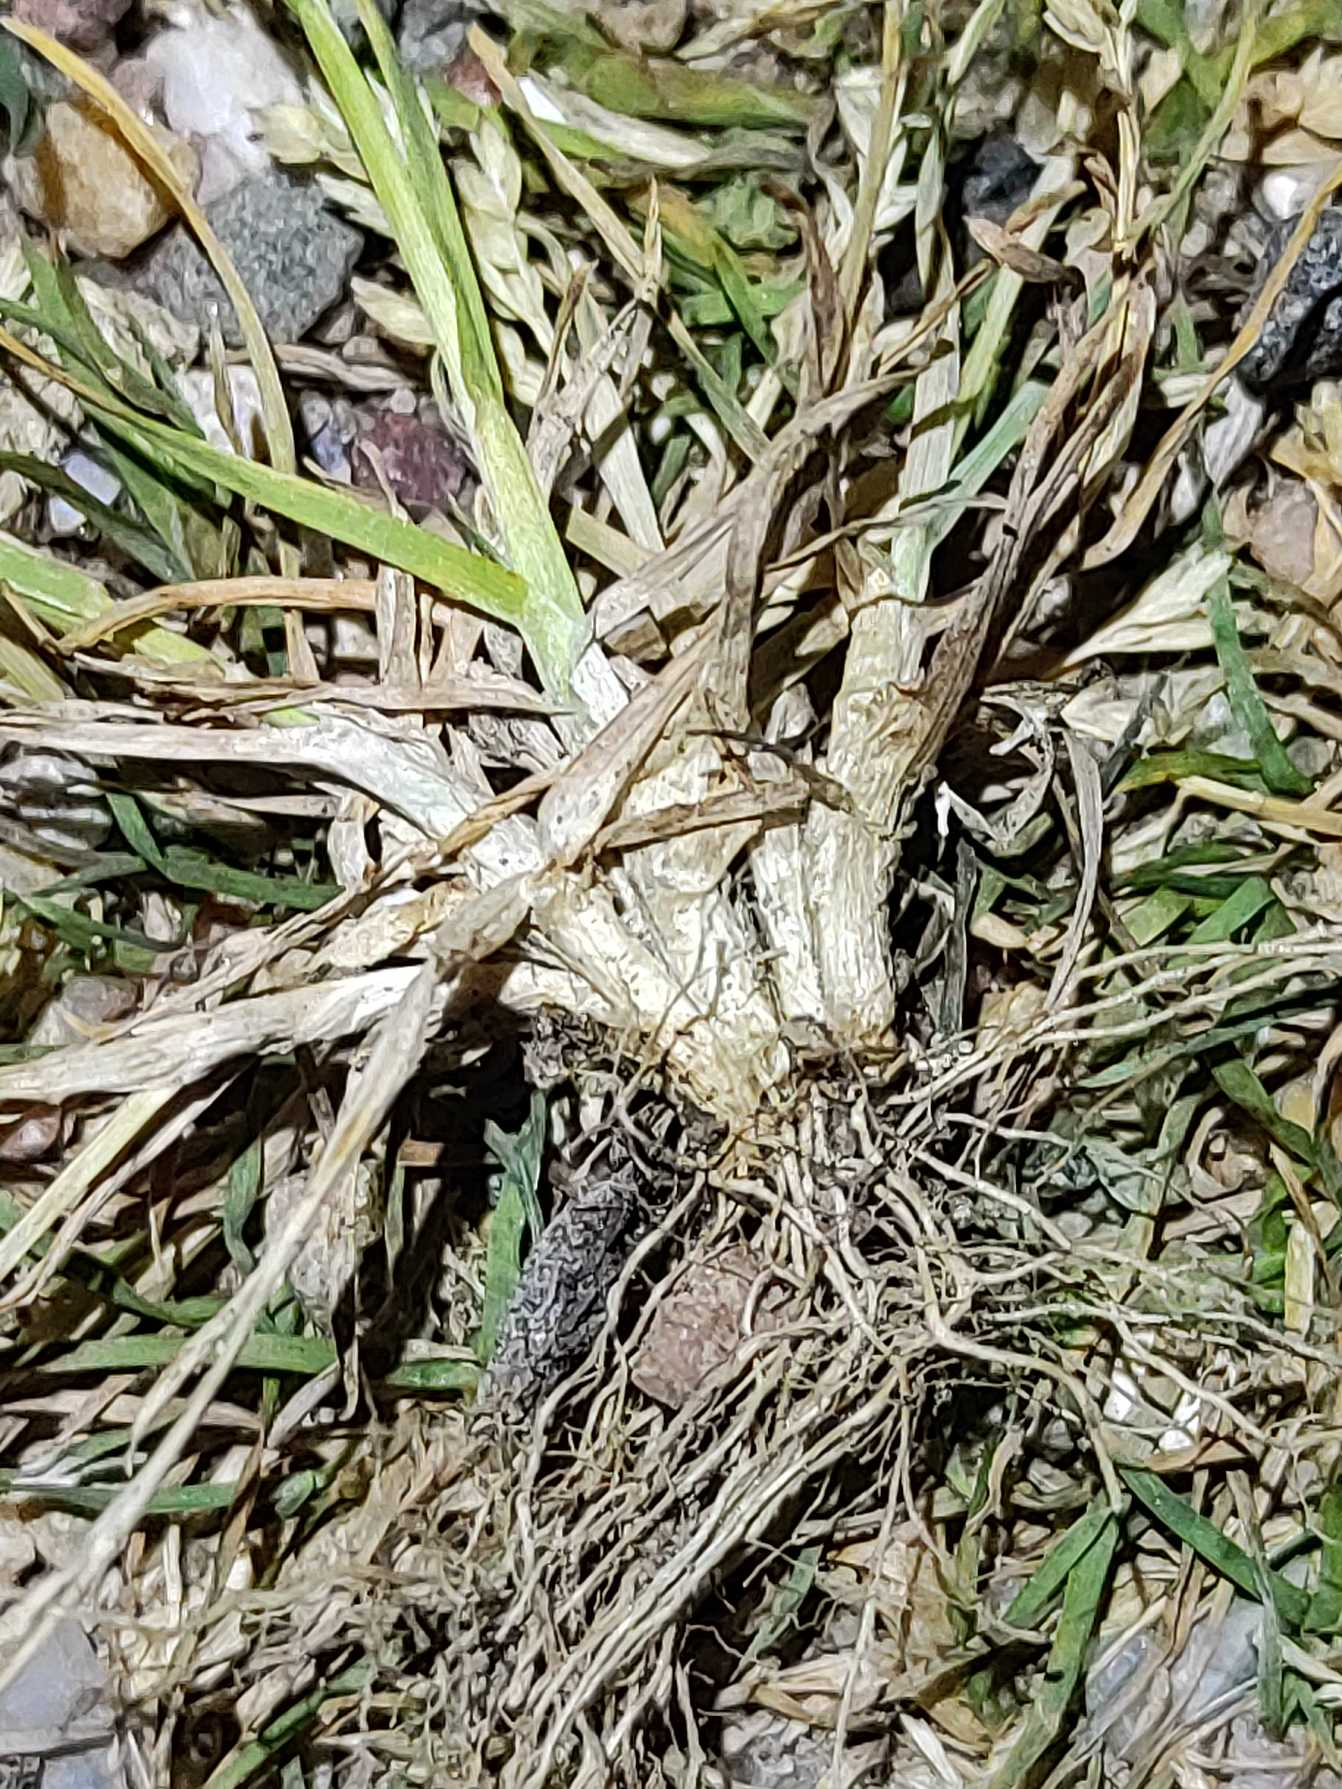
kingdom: Plantae
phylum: Tracheophyta
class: Liliopsida
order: Poales
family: Poaceae
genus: Poa
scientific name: Poa annua
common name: Enårig rapgræs
